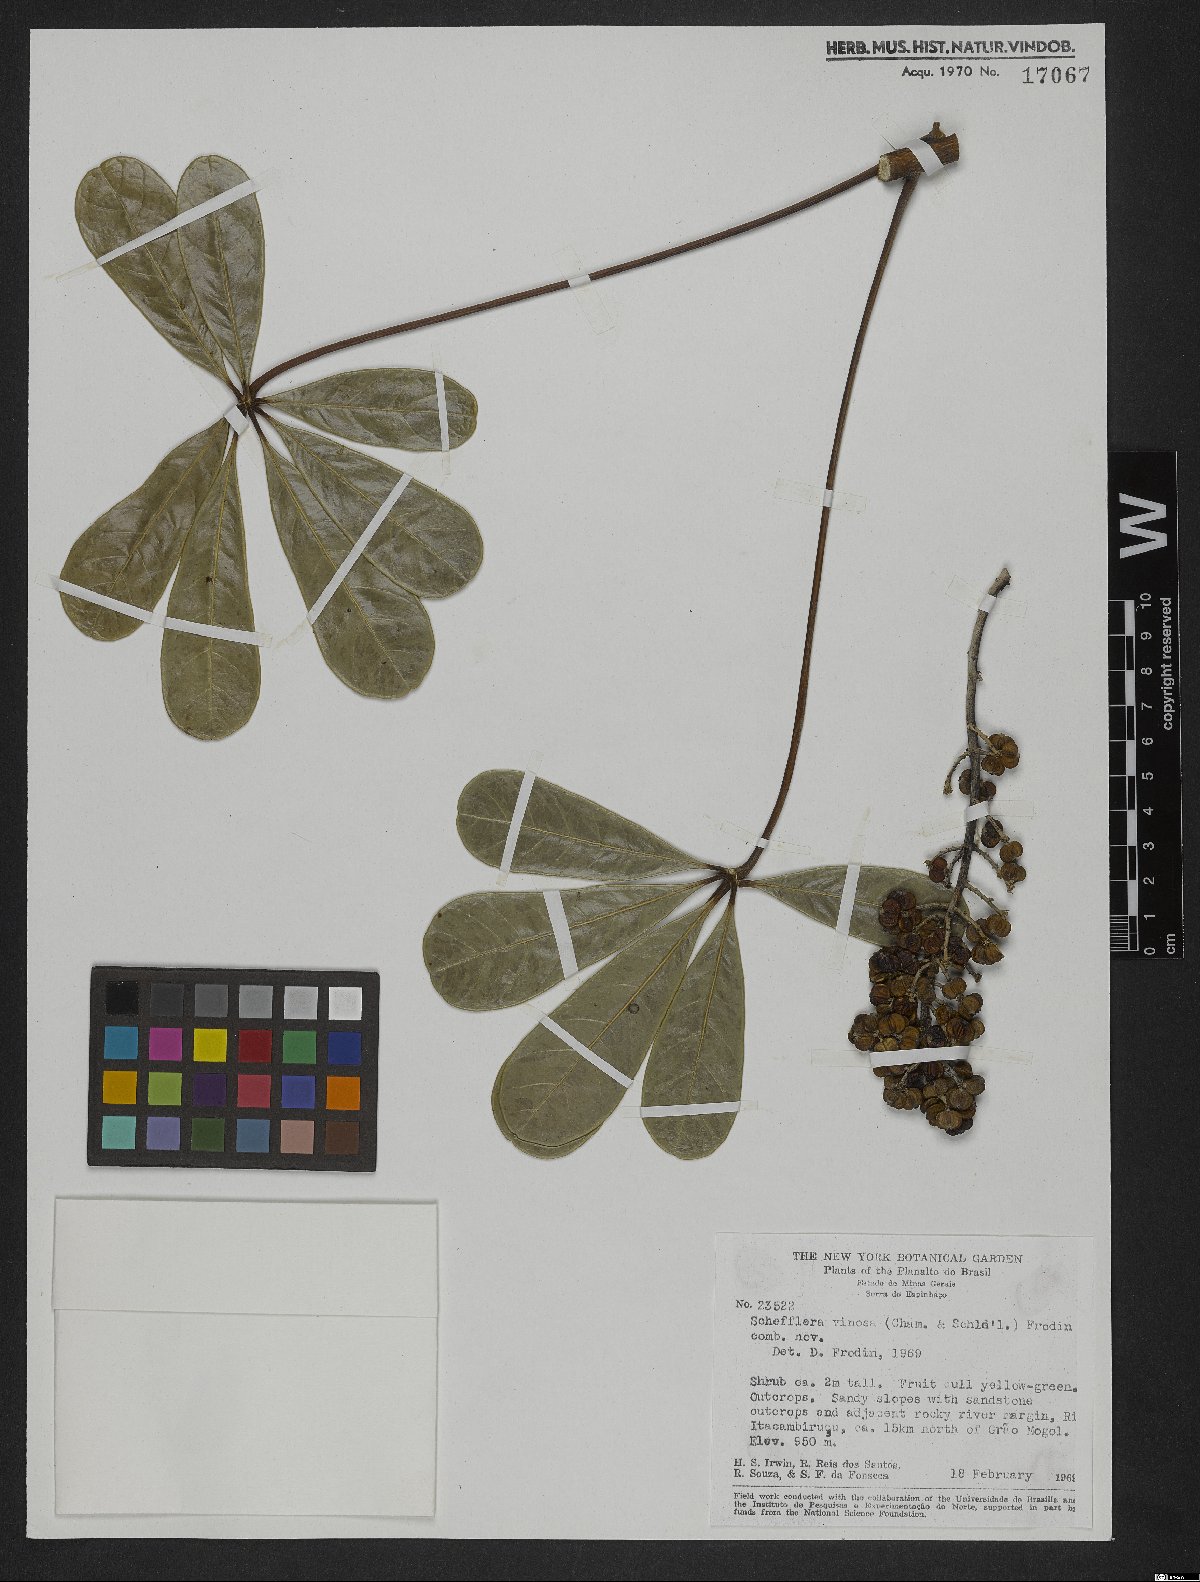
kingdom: Plantae
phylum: Tracheophyta
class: Magnoliopsida
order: Apiales
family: Araliaceae
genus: Didymopanax
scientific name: Didymopanax vinosus
